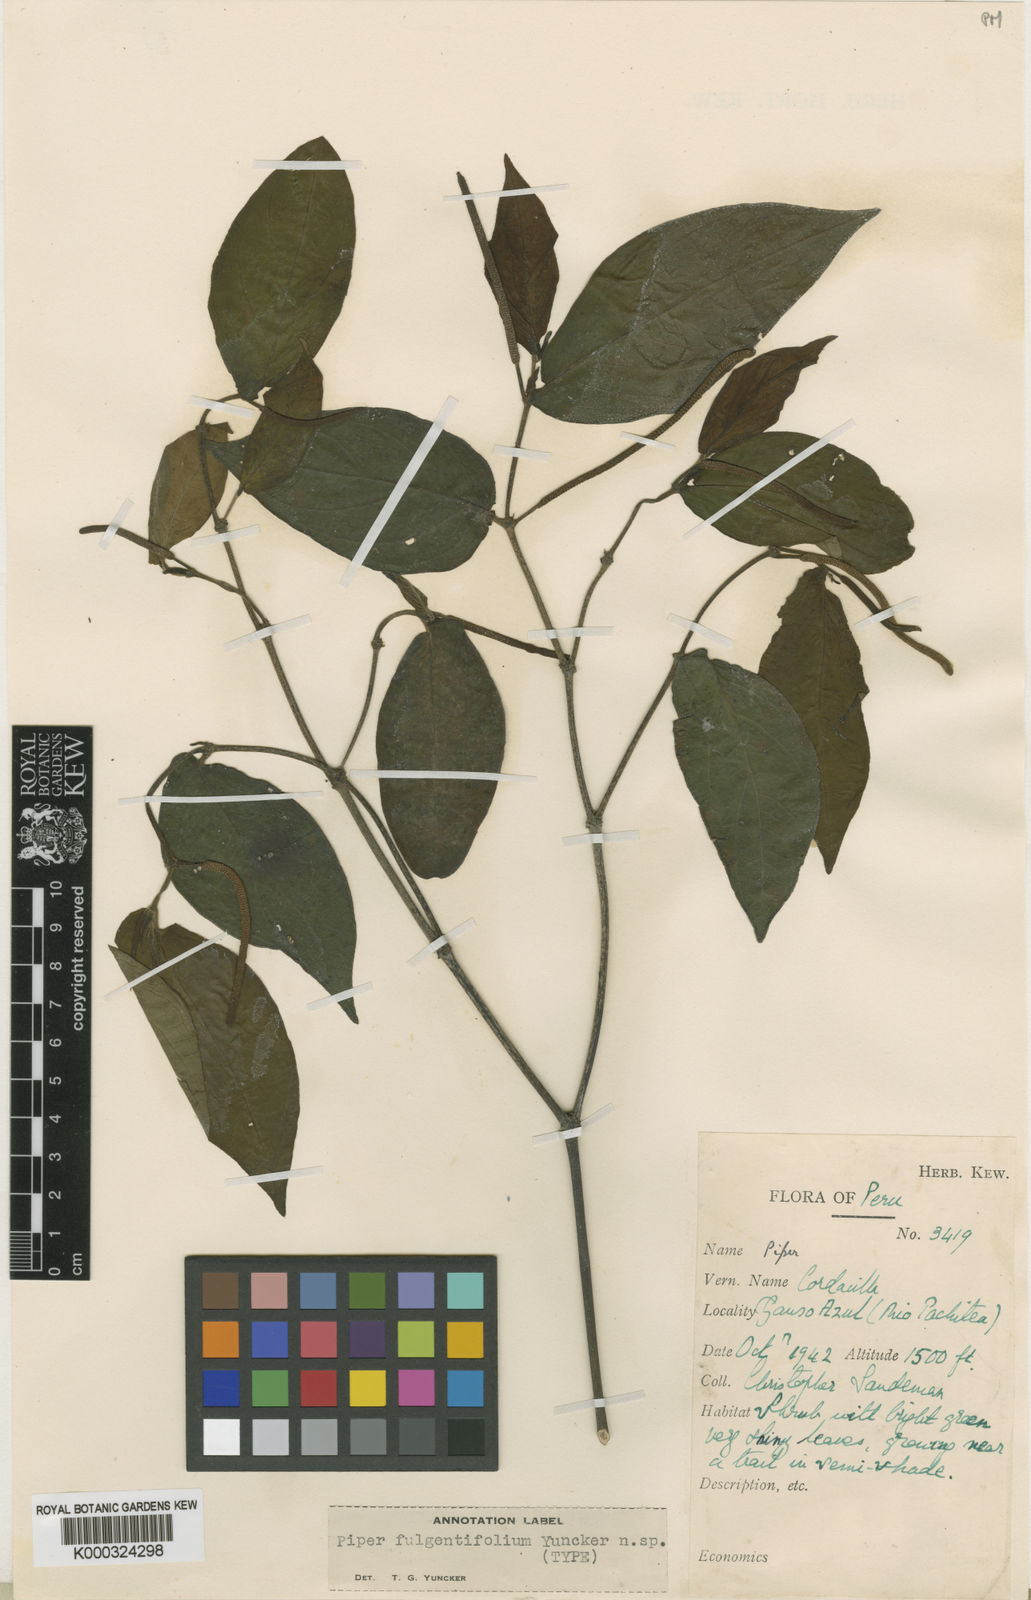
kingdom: Plantae
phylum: Tracheophyta
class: Magnoliopsida
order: Piperales
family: Piperaceae
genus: Piper
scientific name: Piper fulgentifolium
